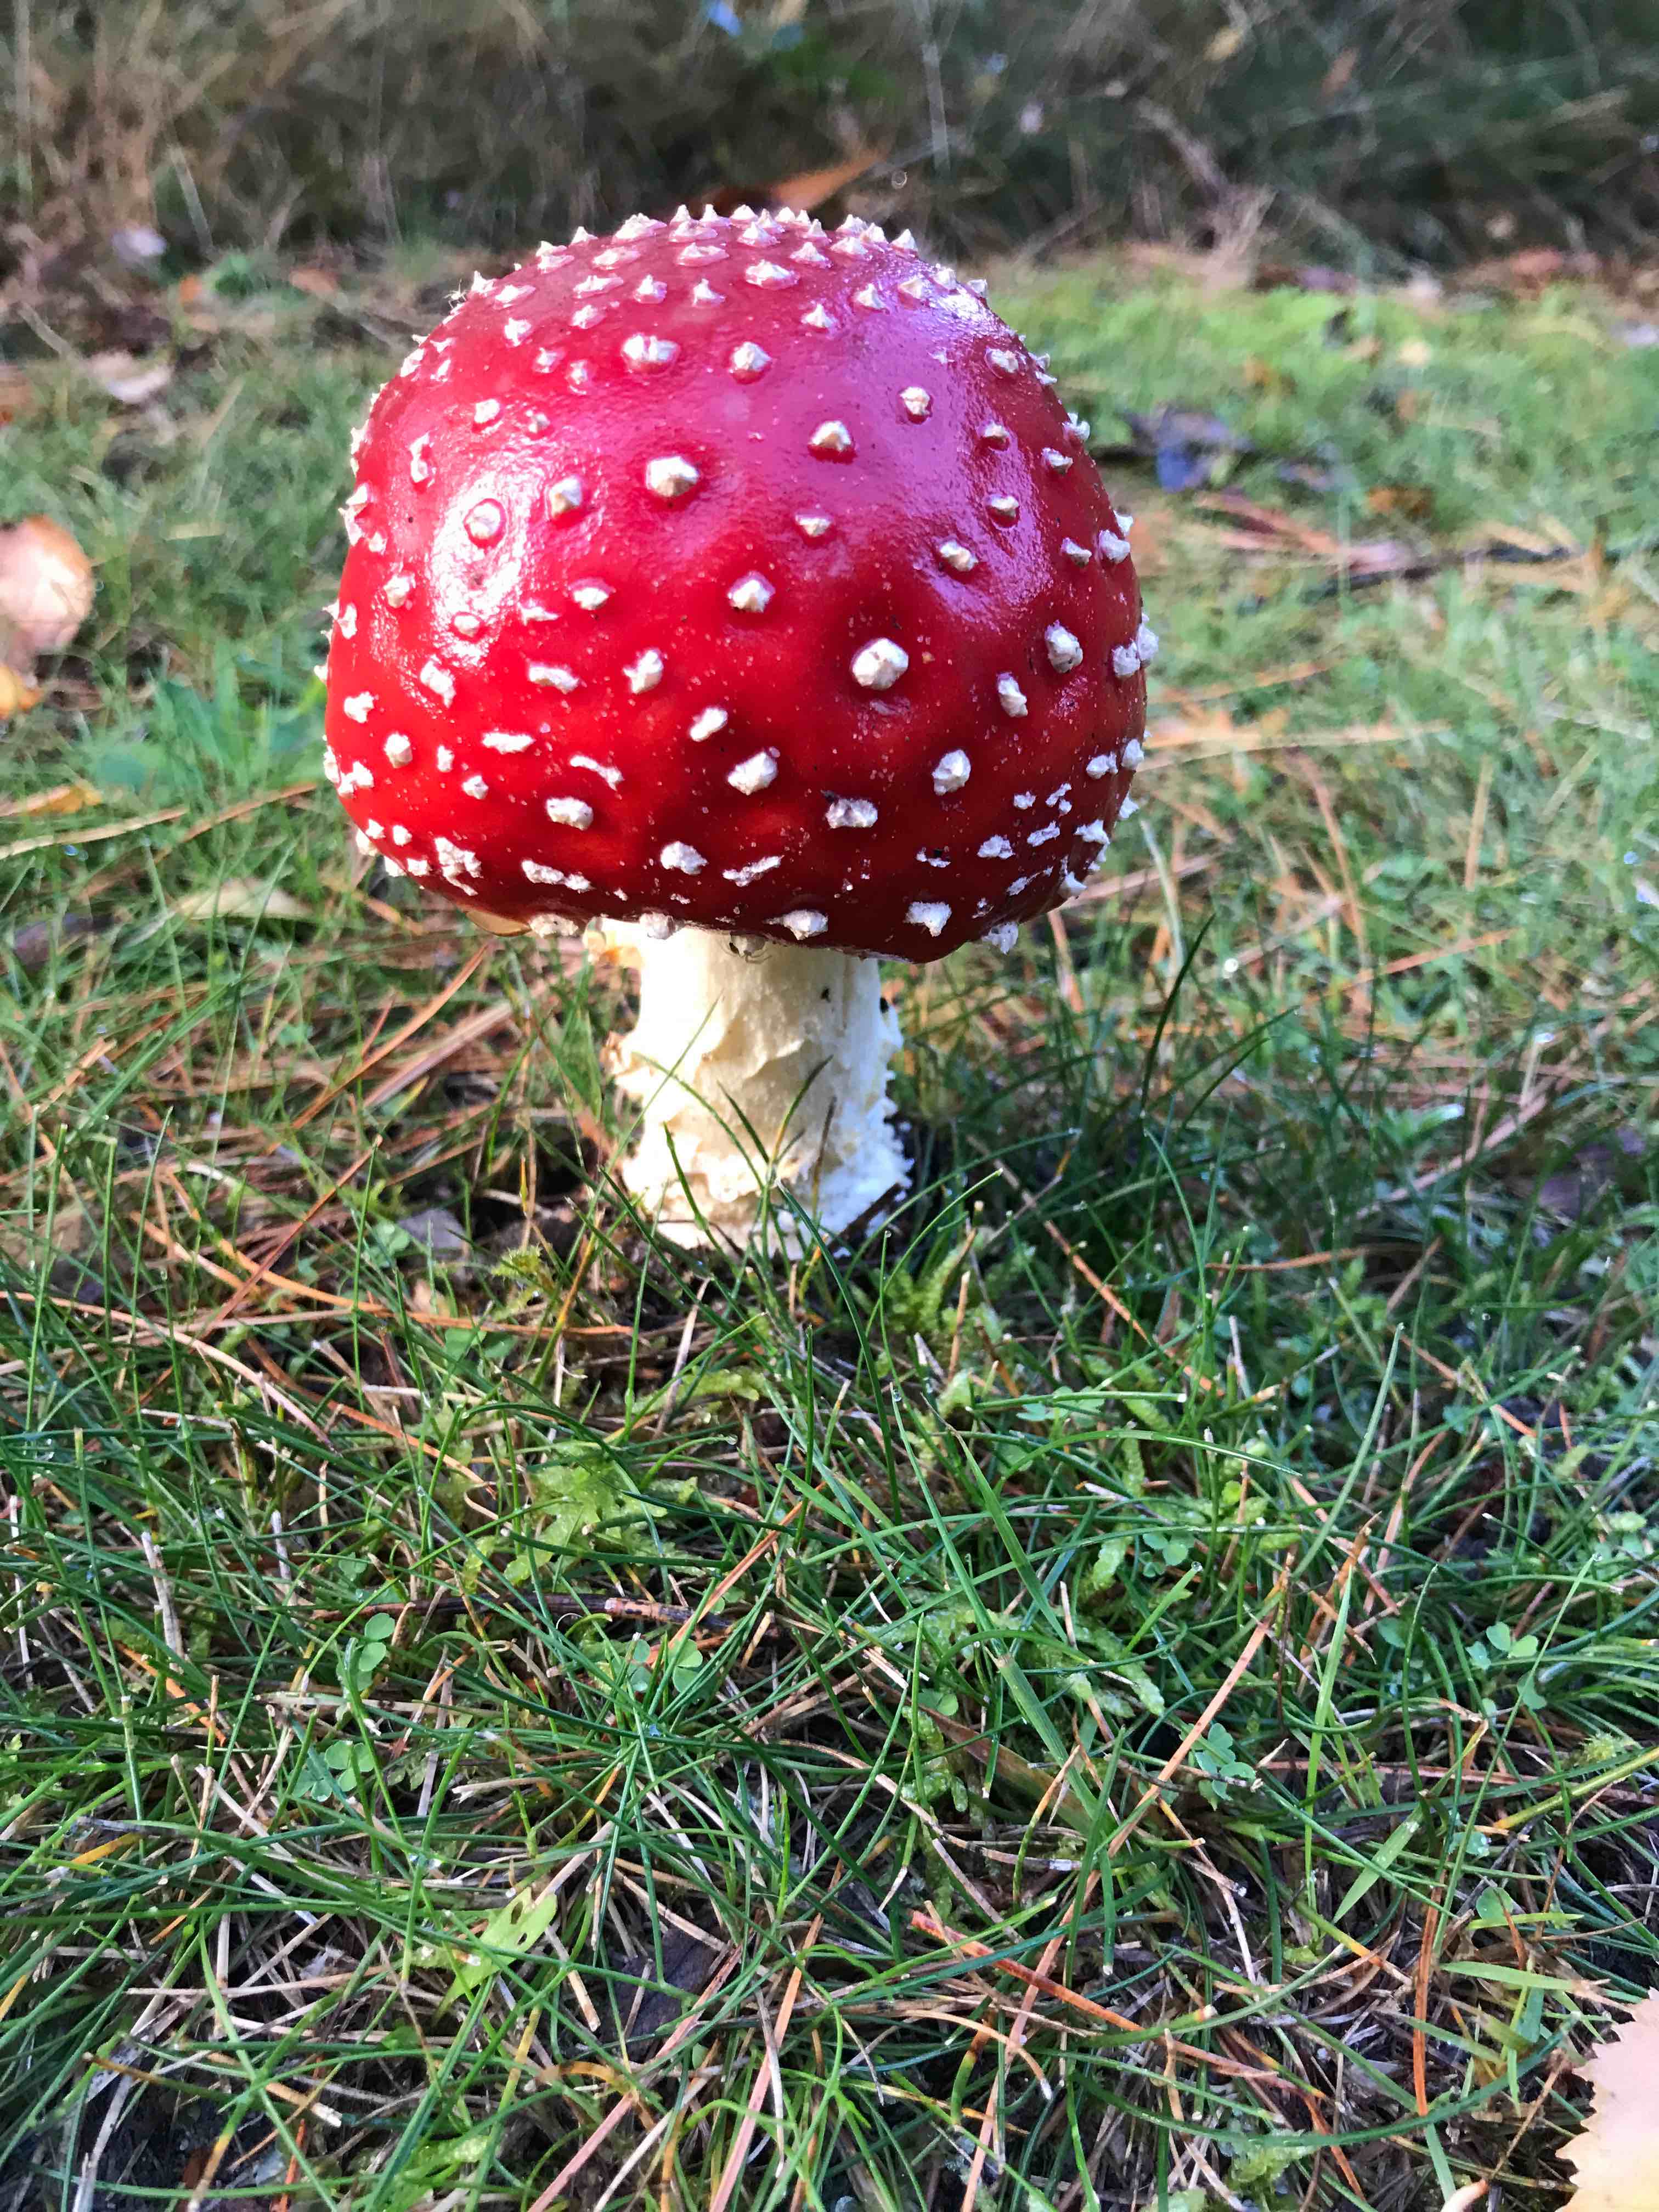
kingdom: Fungi
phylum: Basidiomycota
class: Agaricomycetes
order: Agaricales
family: Amanitaceae
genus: Amanita
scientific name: Amanita muscaria
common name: rød fluesvamp
